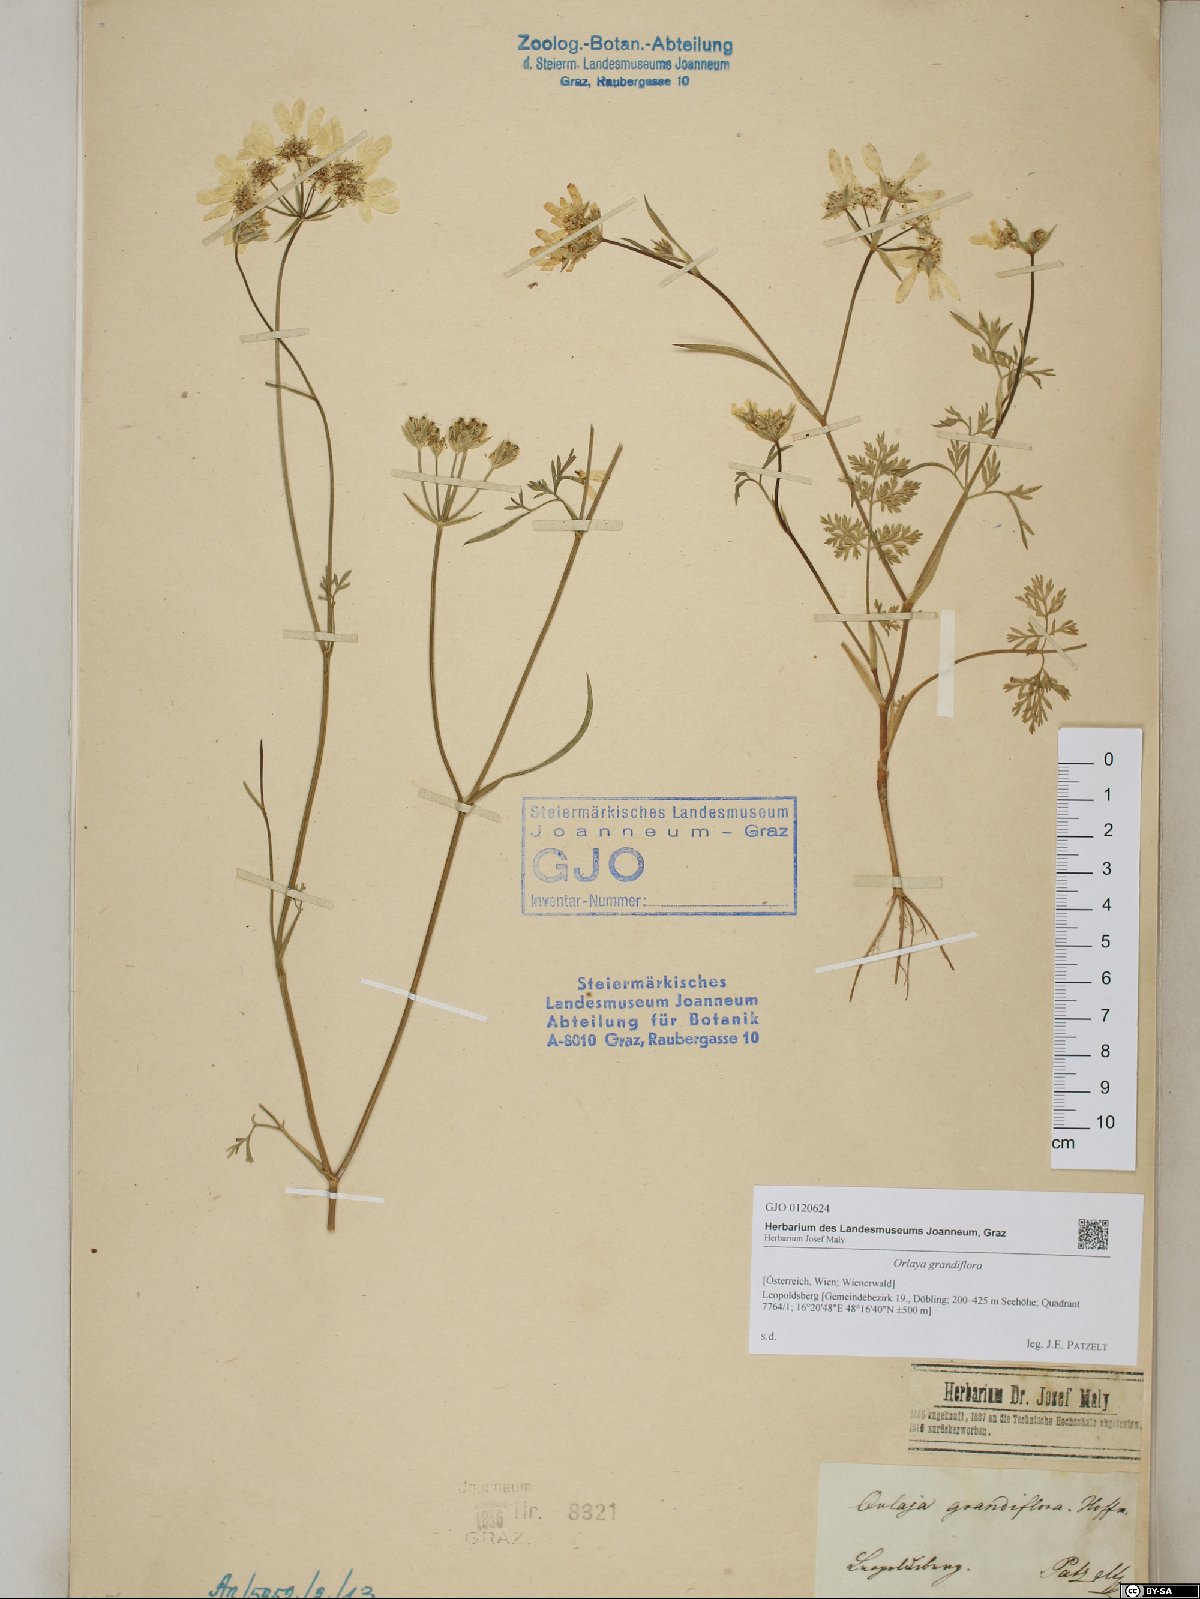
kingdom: Plantae
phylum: Tracheophyta
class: Magnoliopsida
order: Apiales
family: Apiaceae
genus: Orlaya
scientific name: Orlaya grandiflora
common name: White lace flower
